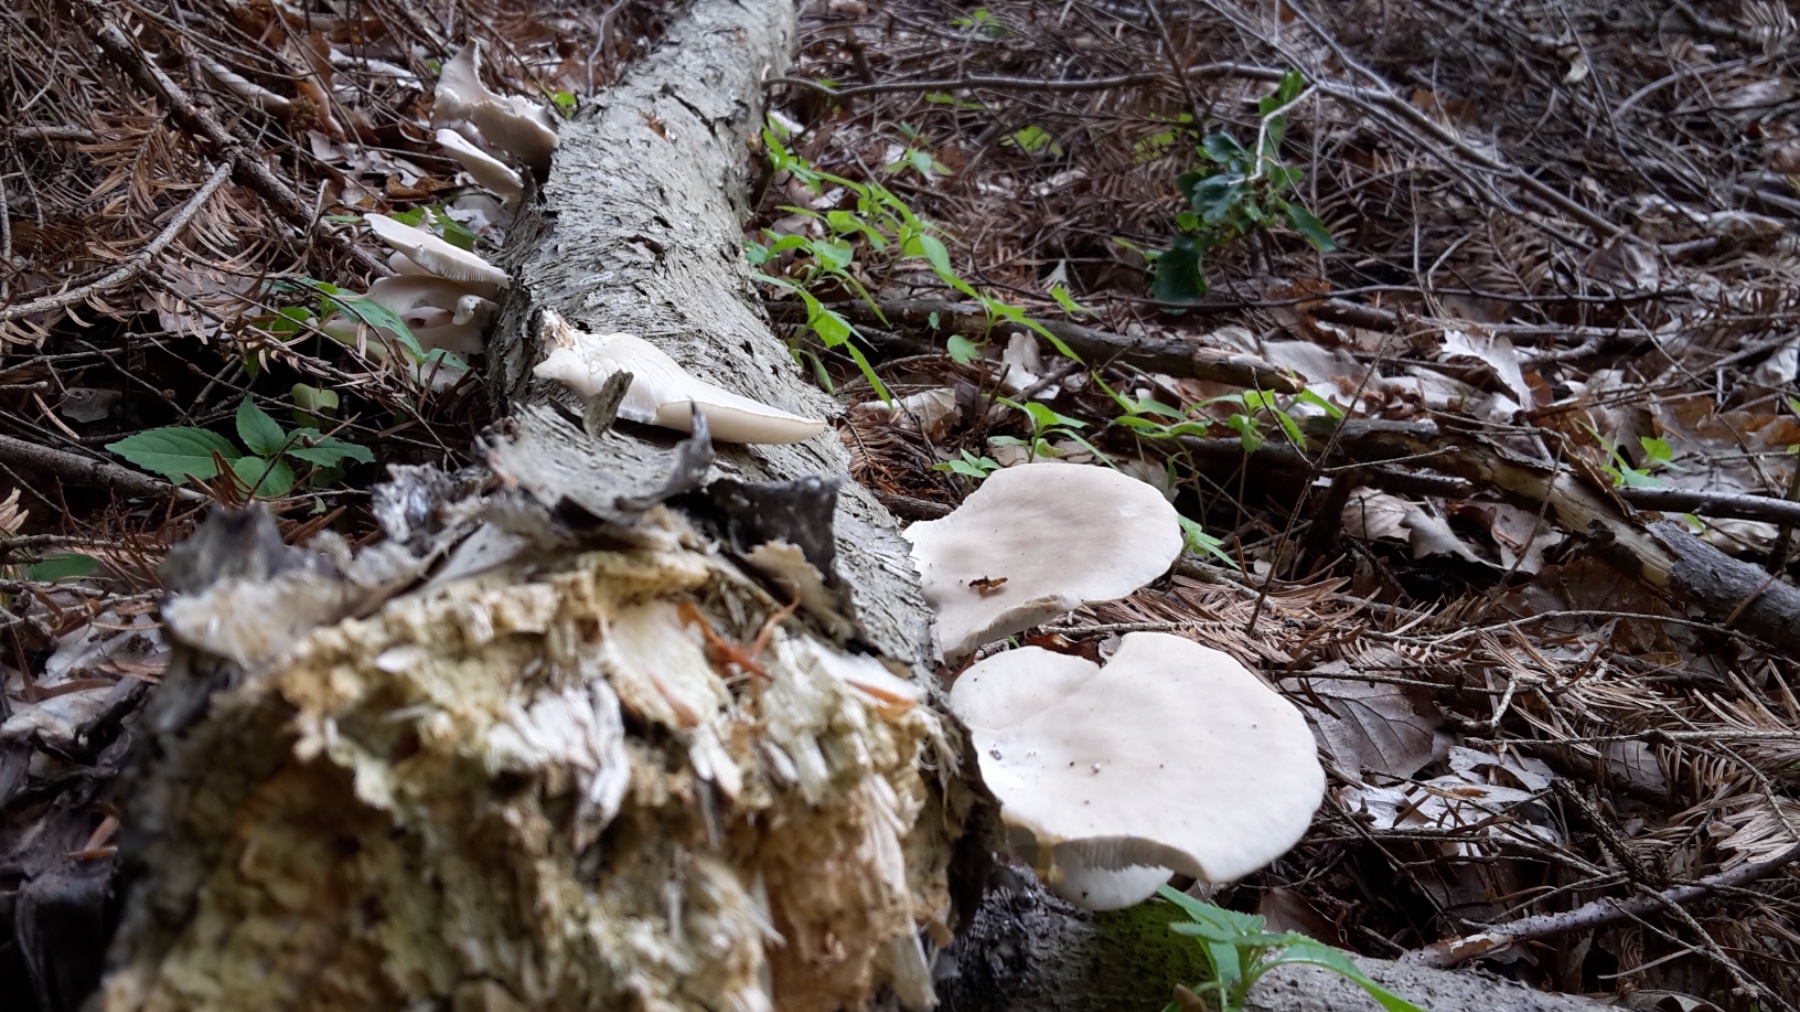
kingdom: Fungi
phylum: Basidiomycota
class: Agaricomycetes
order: Agaricales
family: Pleurotaceae
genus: Pleurotus
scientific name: Pleurotus pulmonarius
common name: sommer-østershat
